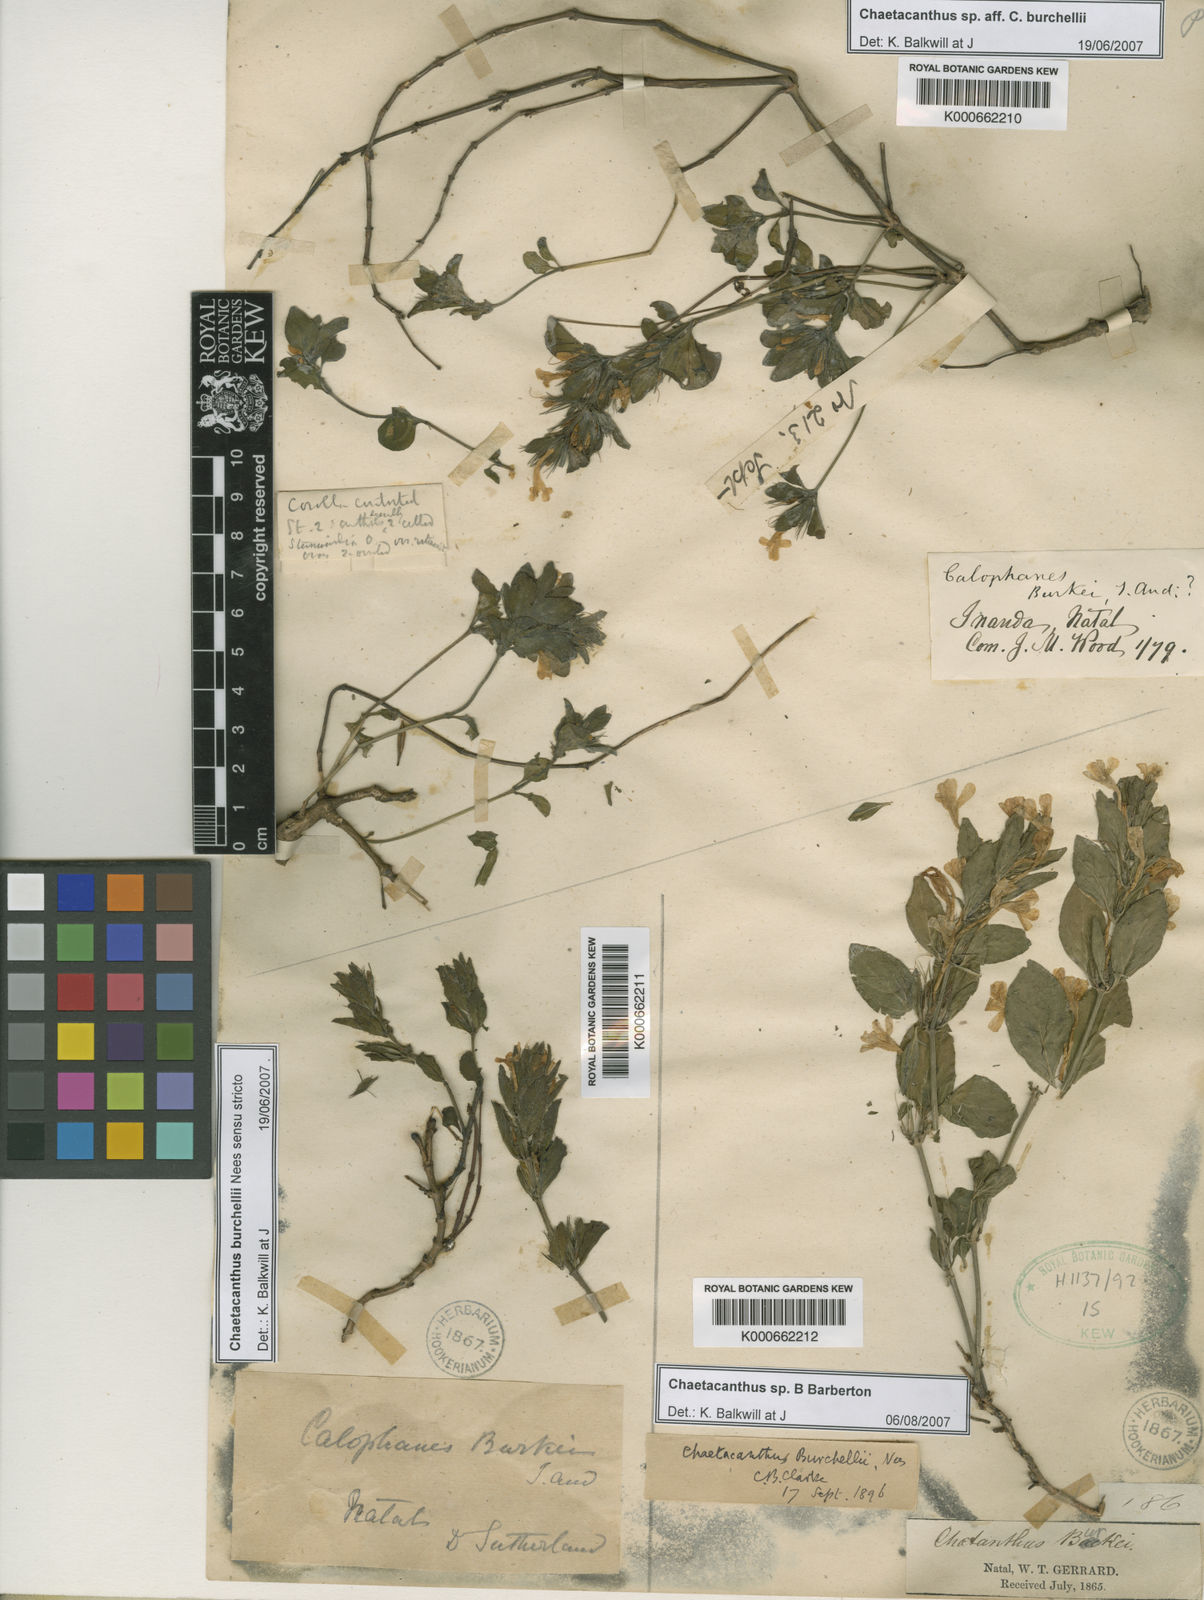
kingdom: Plantae
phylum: Tracheophyta
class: Magnoliopsida
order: Lamiales
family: Acanthaceae
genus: Dyschoriste
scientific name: Dyschoriste radicans
